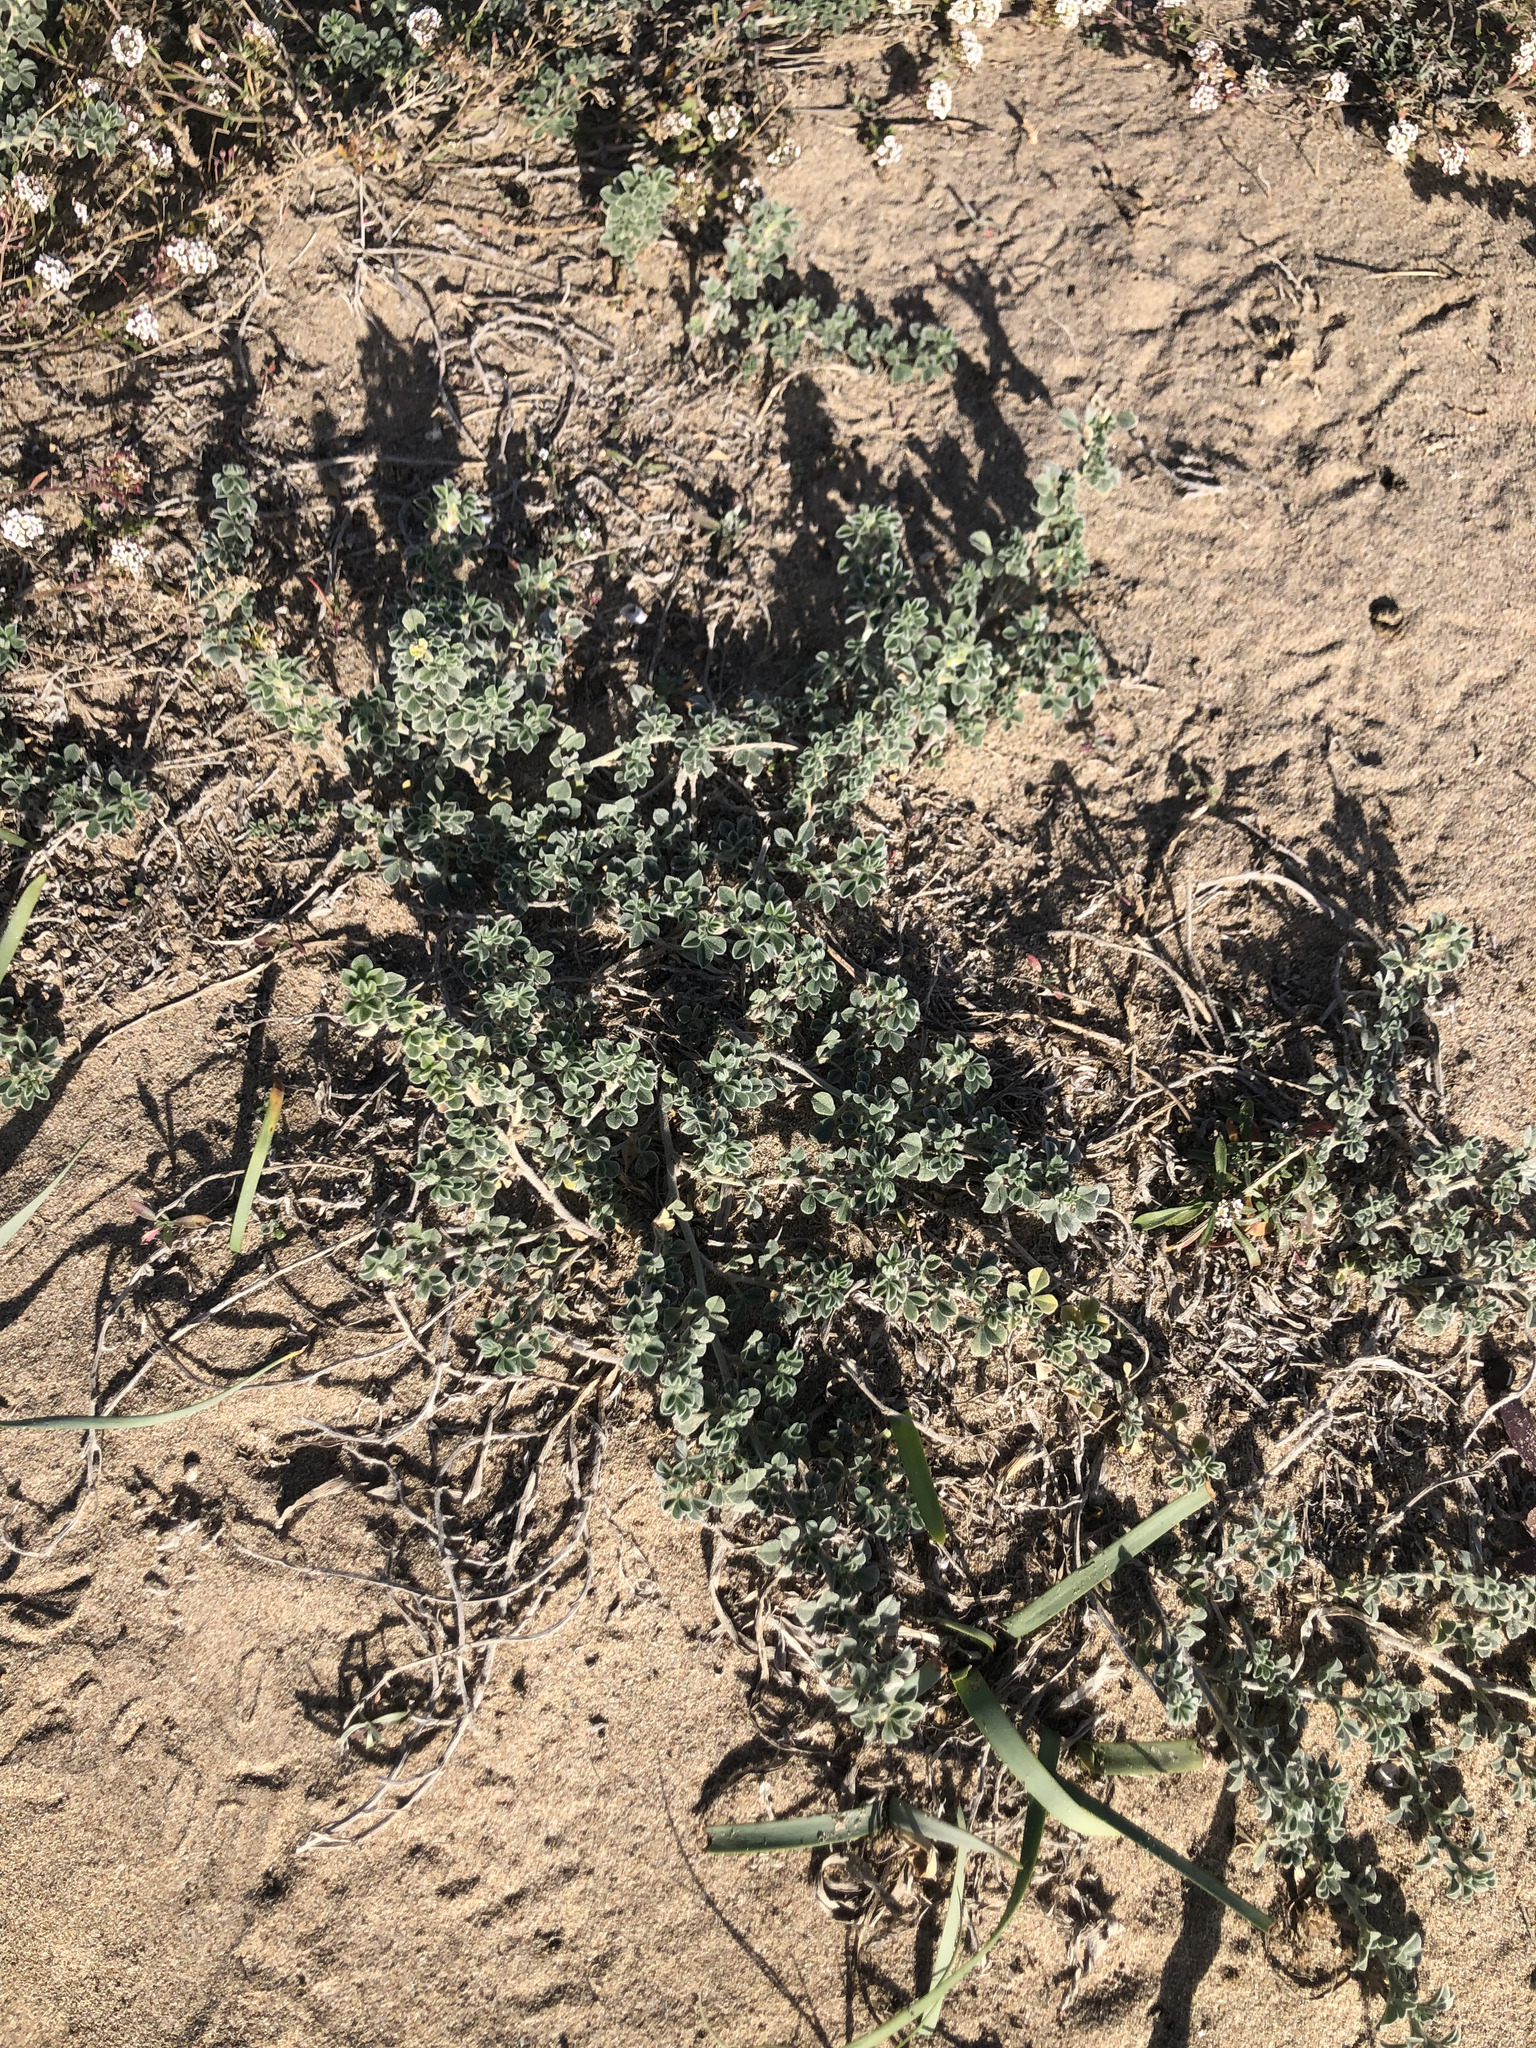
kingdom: Plantae
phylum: Tracheophyta
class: Magnoliopsida
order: Fabales
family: Fabaceae
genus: Medicago
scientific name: Medicago marina
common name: Sea medick
